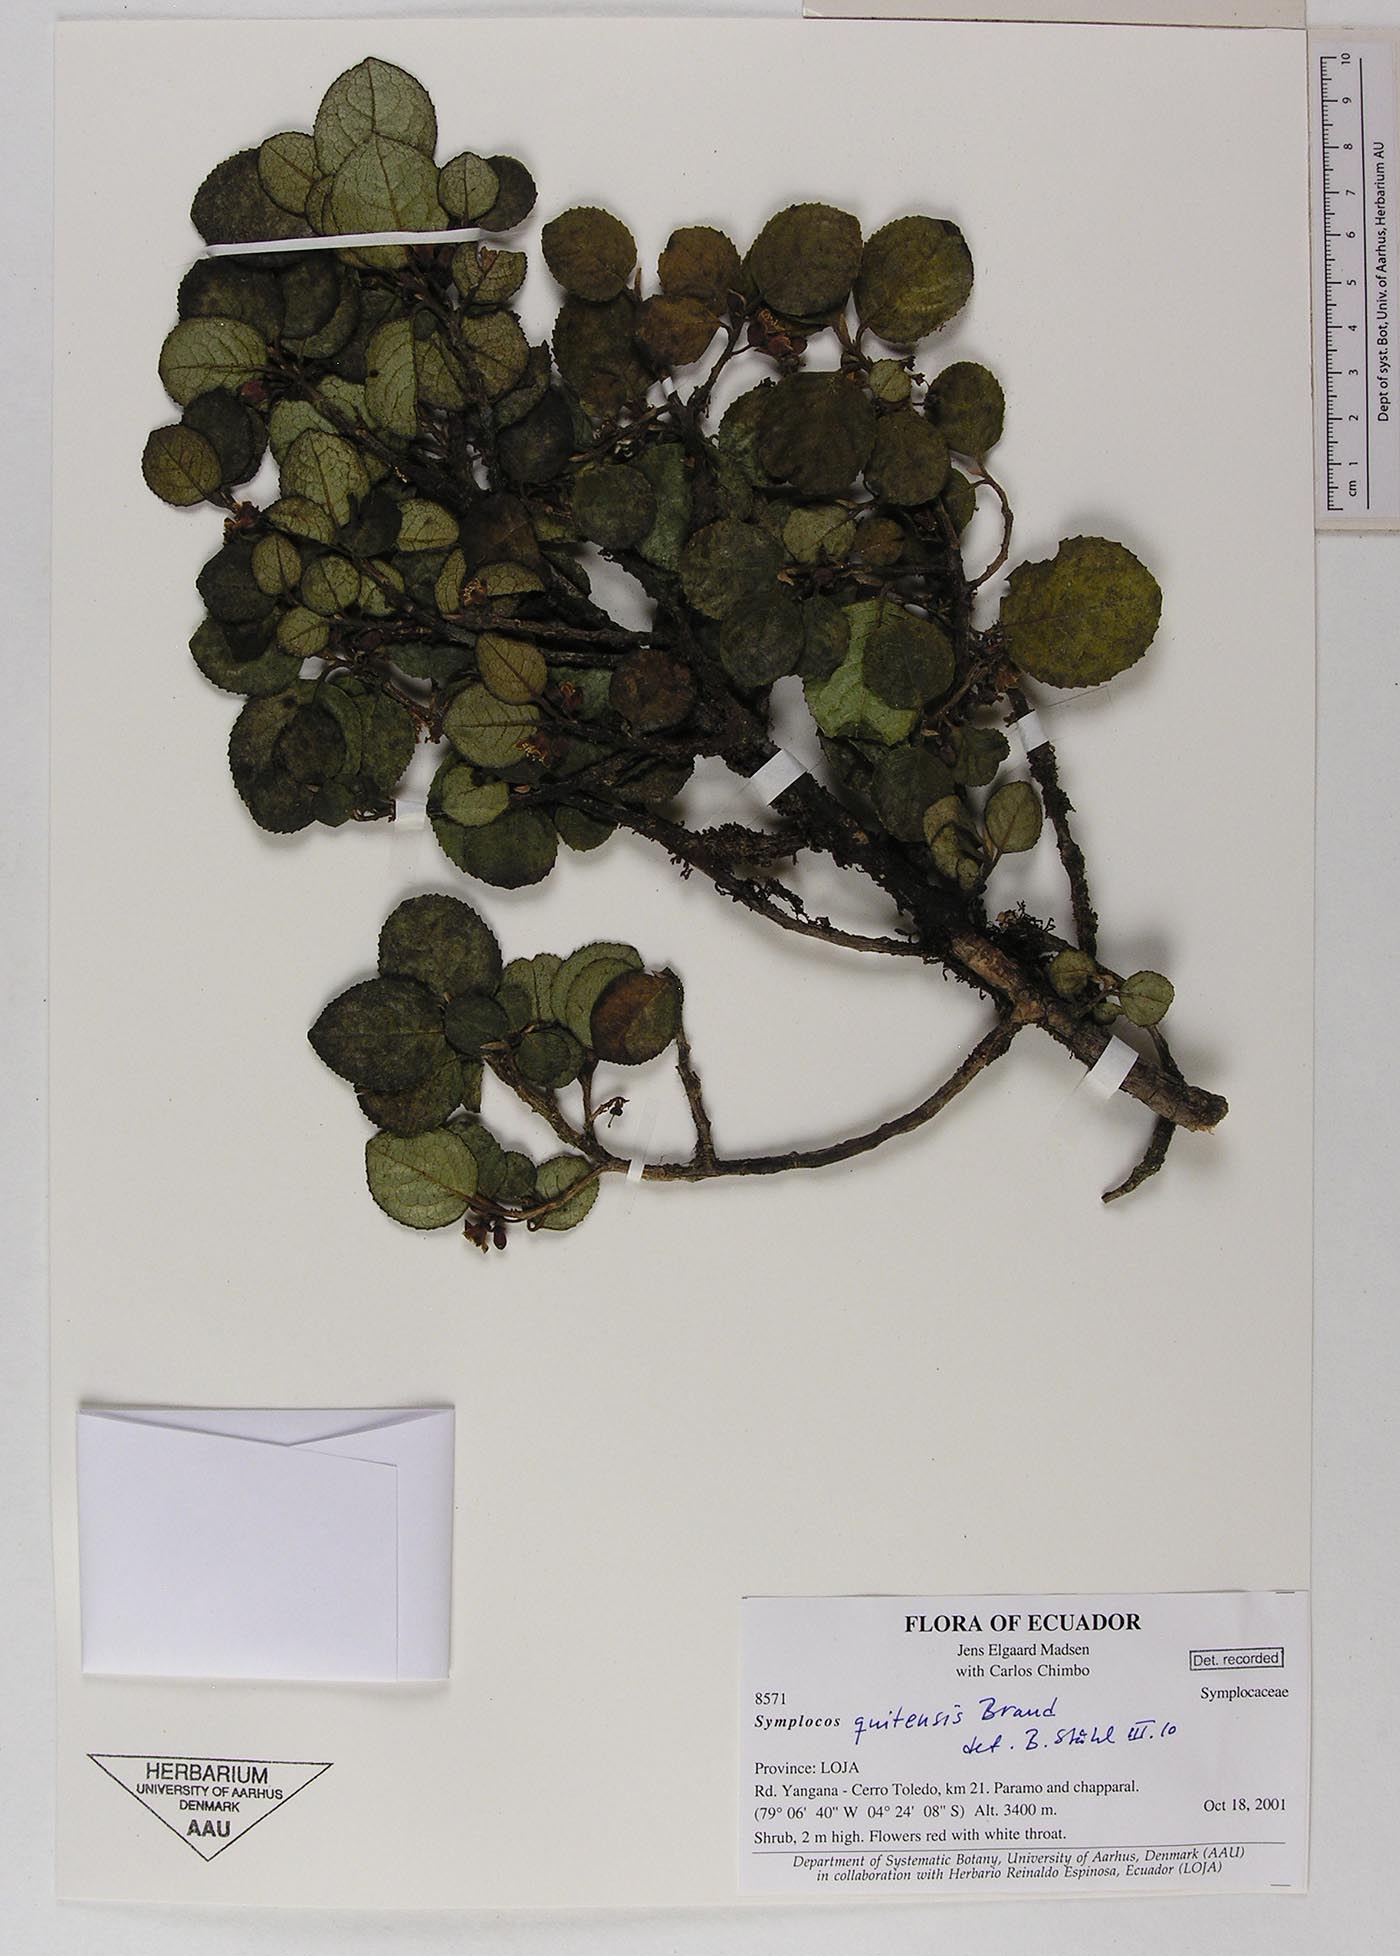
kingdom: Plantae
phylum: Tracheophyta
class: Magnoliopsida
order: Ericales
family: Symplocaceae
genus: Symplocos
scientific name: Symplocos quitensis
